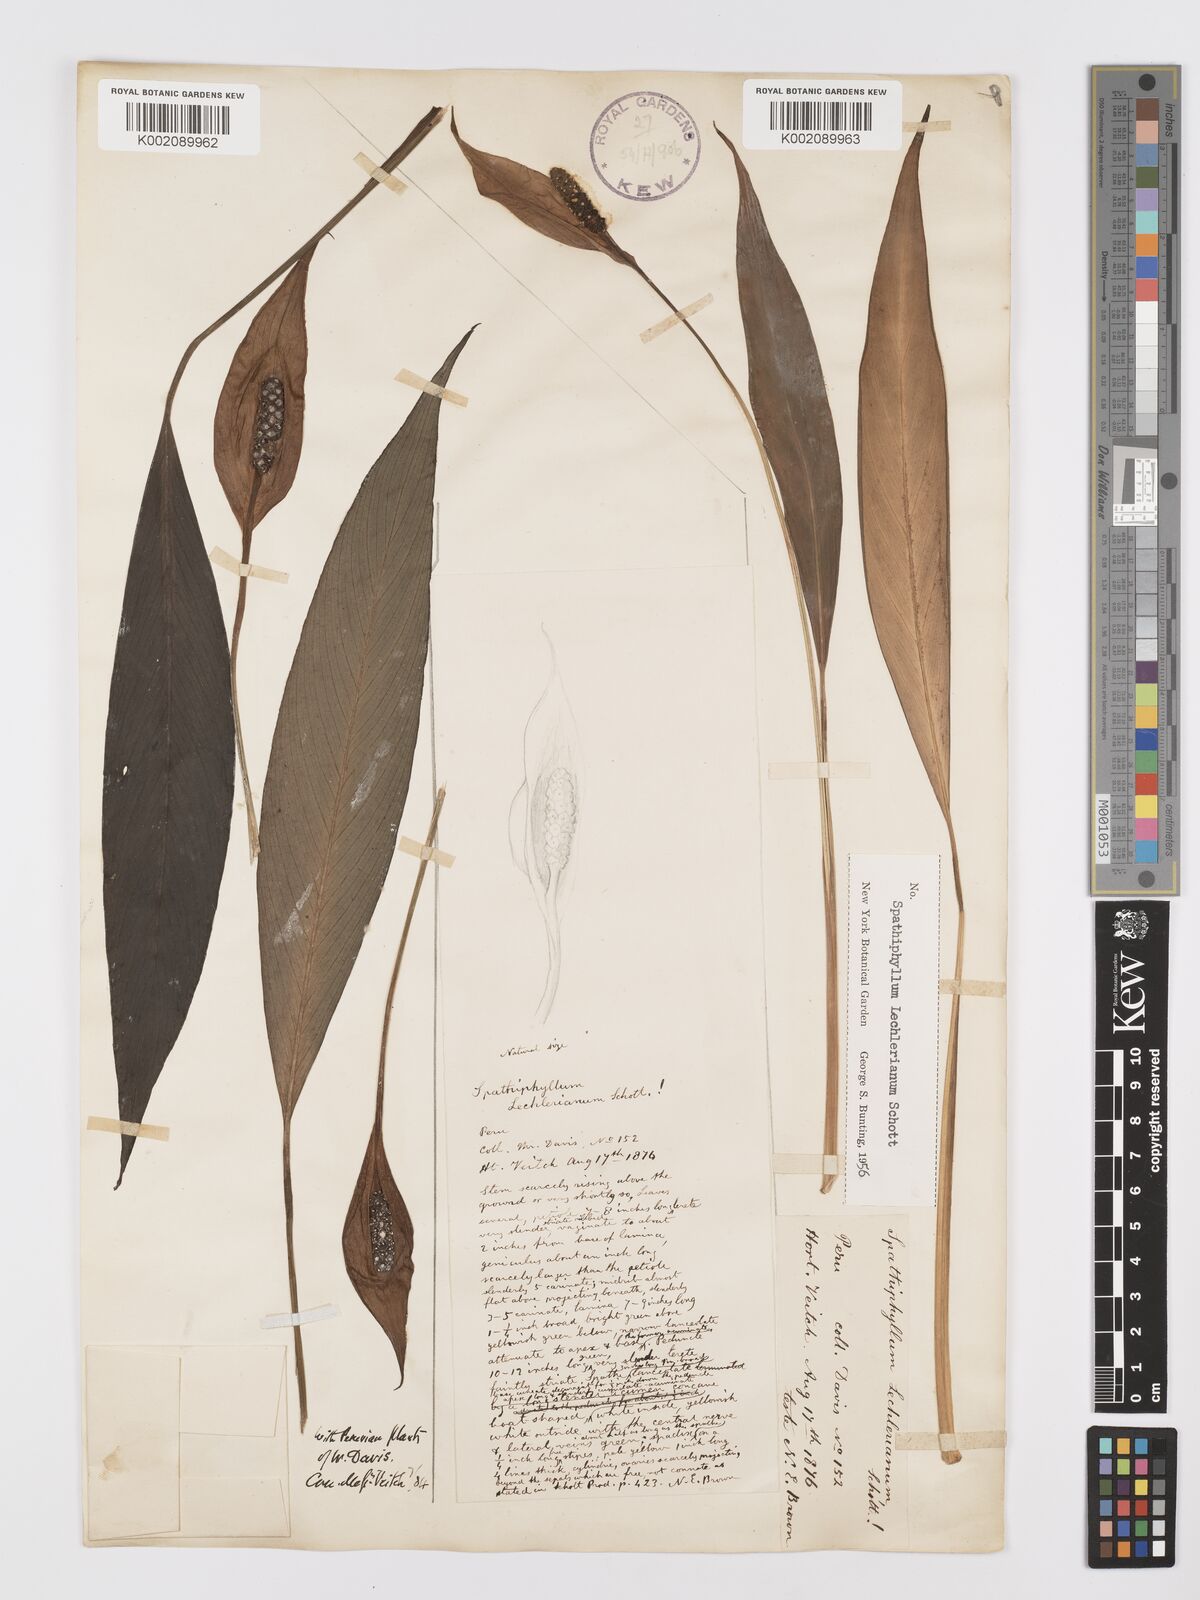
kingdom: Plantae
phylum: Tracheophyta
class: Liliopsida
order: Alismatales
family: Araceae
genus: Spathiphyllum
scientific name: Spathiphyllum lechlerianum
